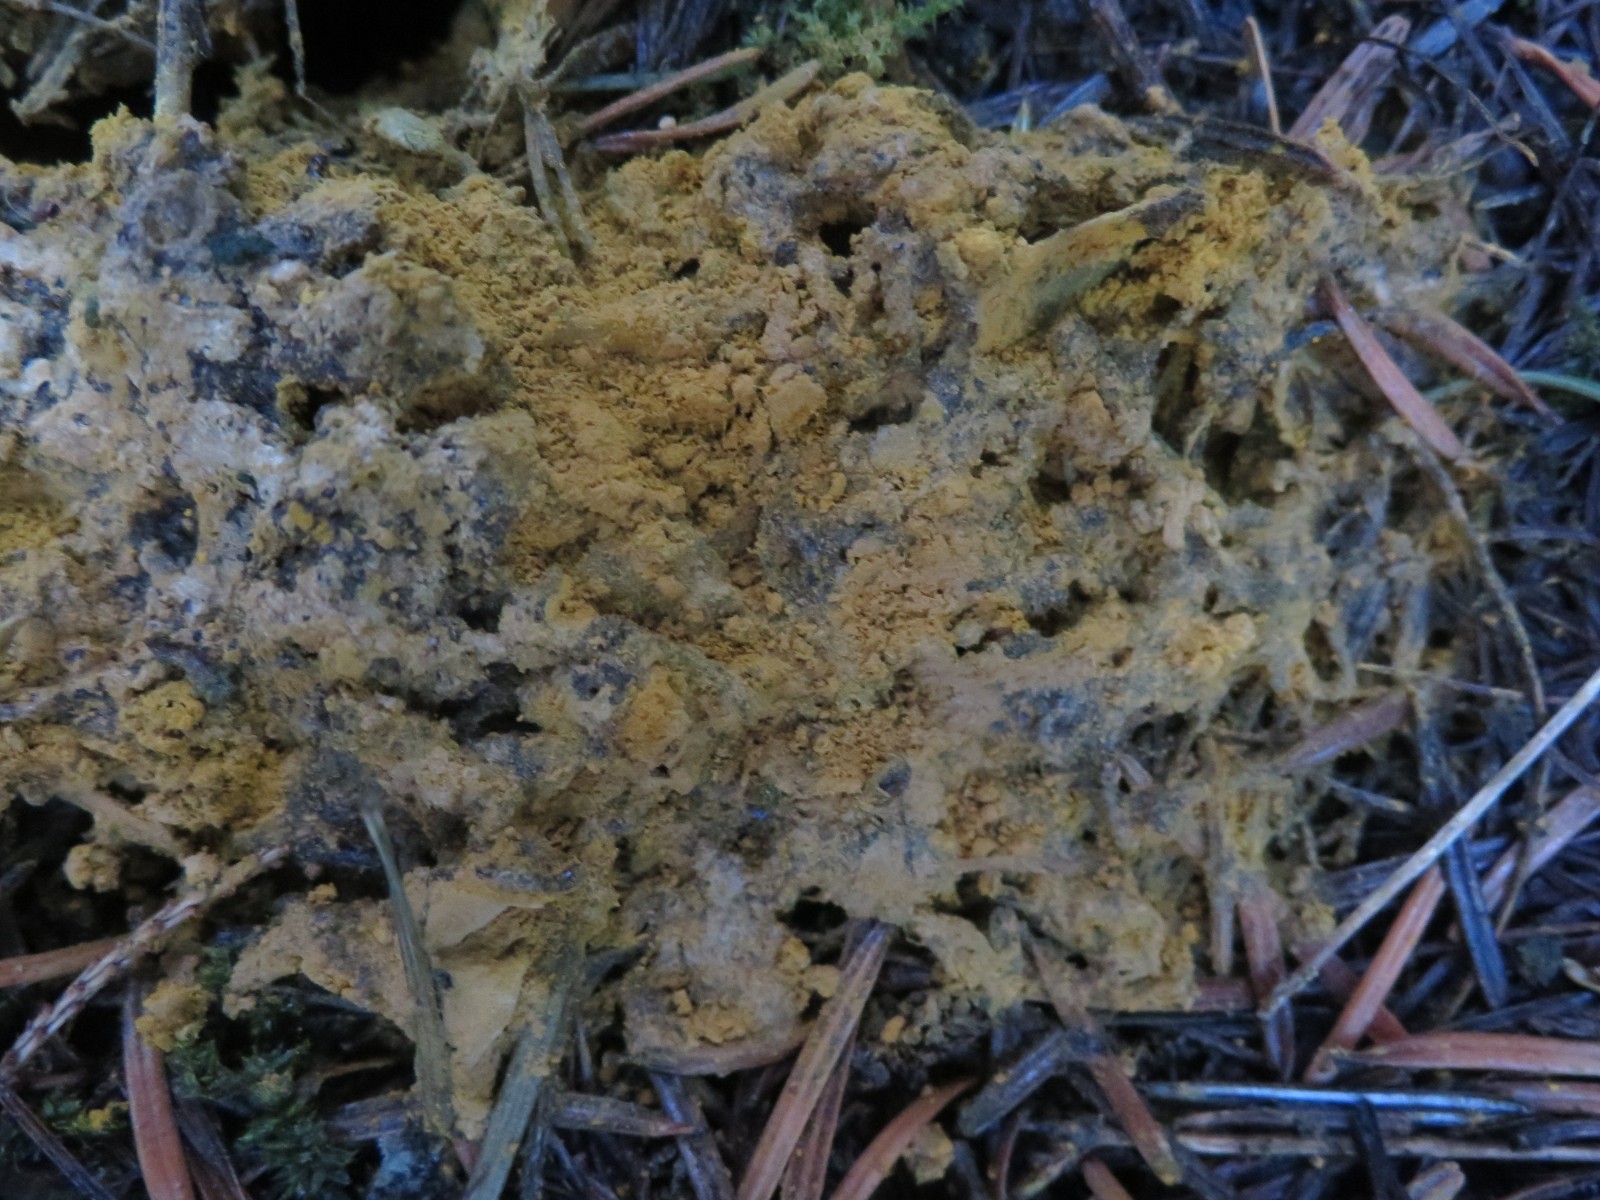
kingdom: Fungi
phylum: Ascomycota
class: Sordariomycetes
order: Hypocreales
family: Hypocreaceae
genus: Hypomyces
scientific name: Hypomyces chrysospermus
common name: gulskimmel-snylteskorpe
